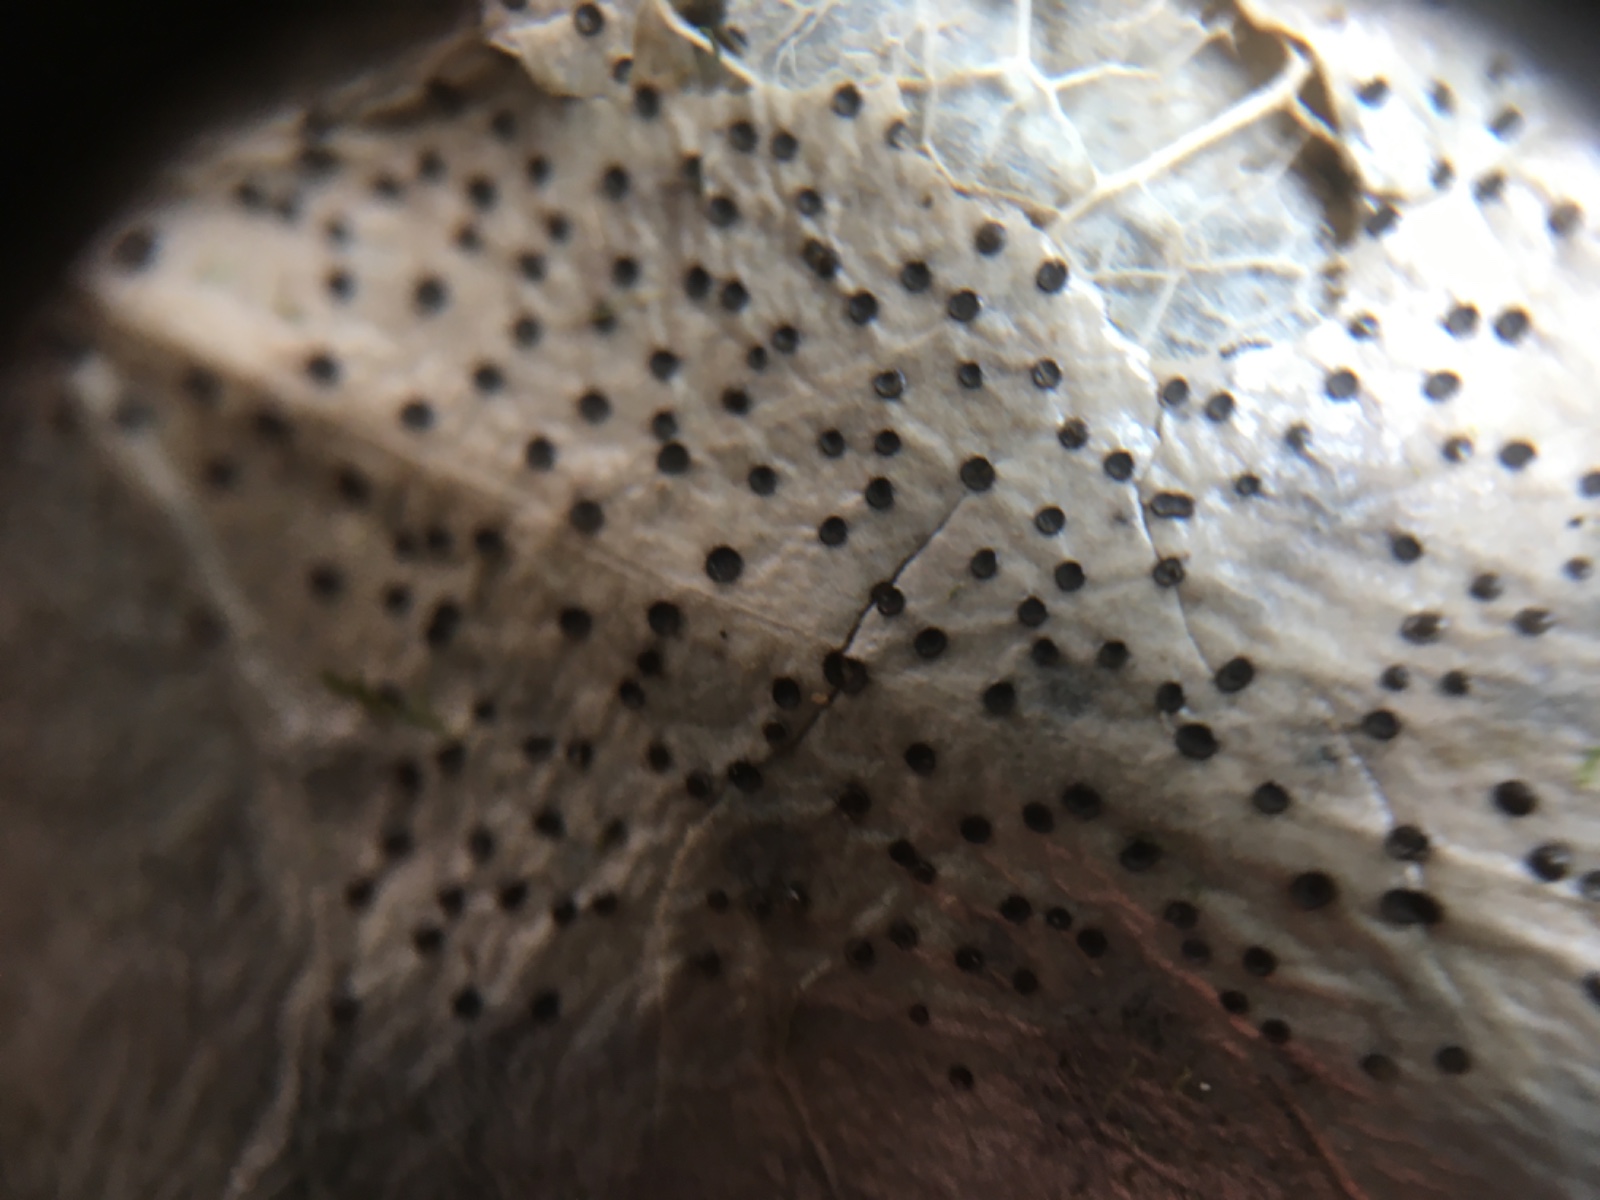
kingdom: Fungi
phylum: Ascomycota
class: Leotiomycetes
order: Helotiales
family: Cenangiaceae
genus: Trochila
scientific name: Trochila ilicina
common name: kristtorn-lågskive
